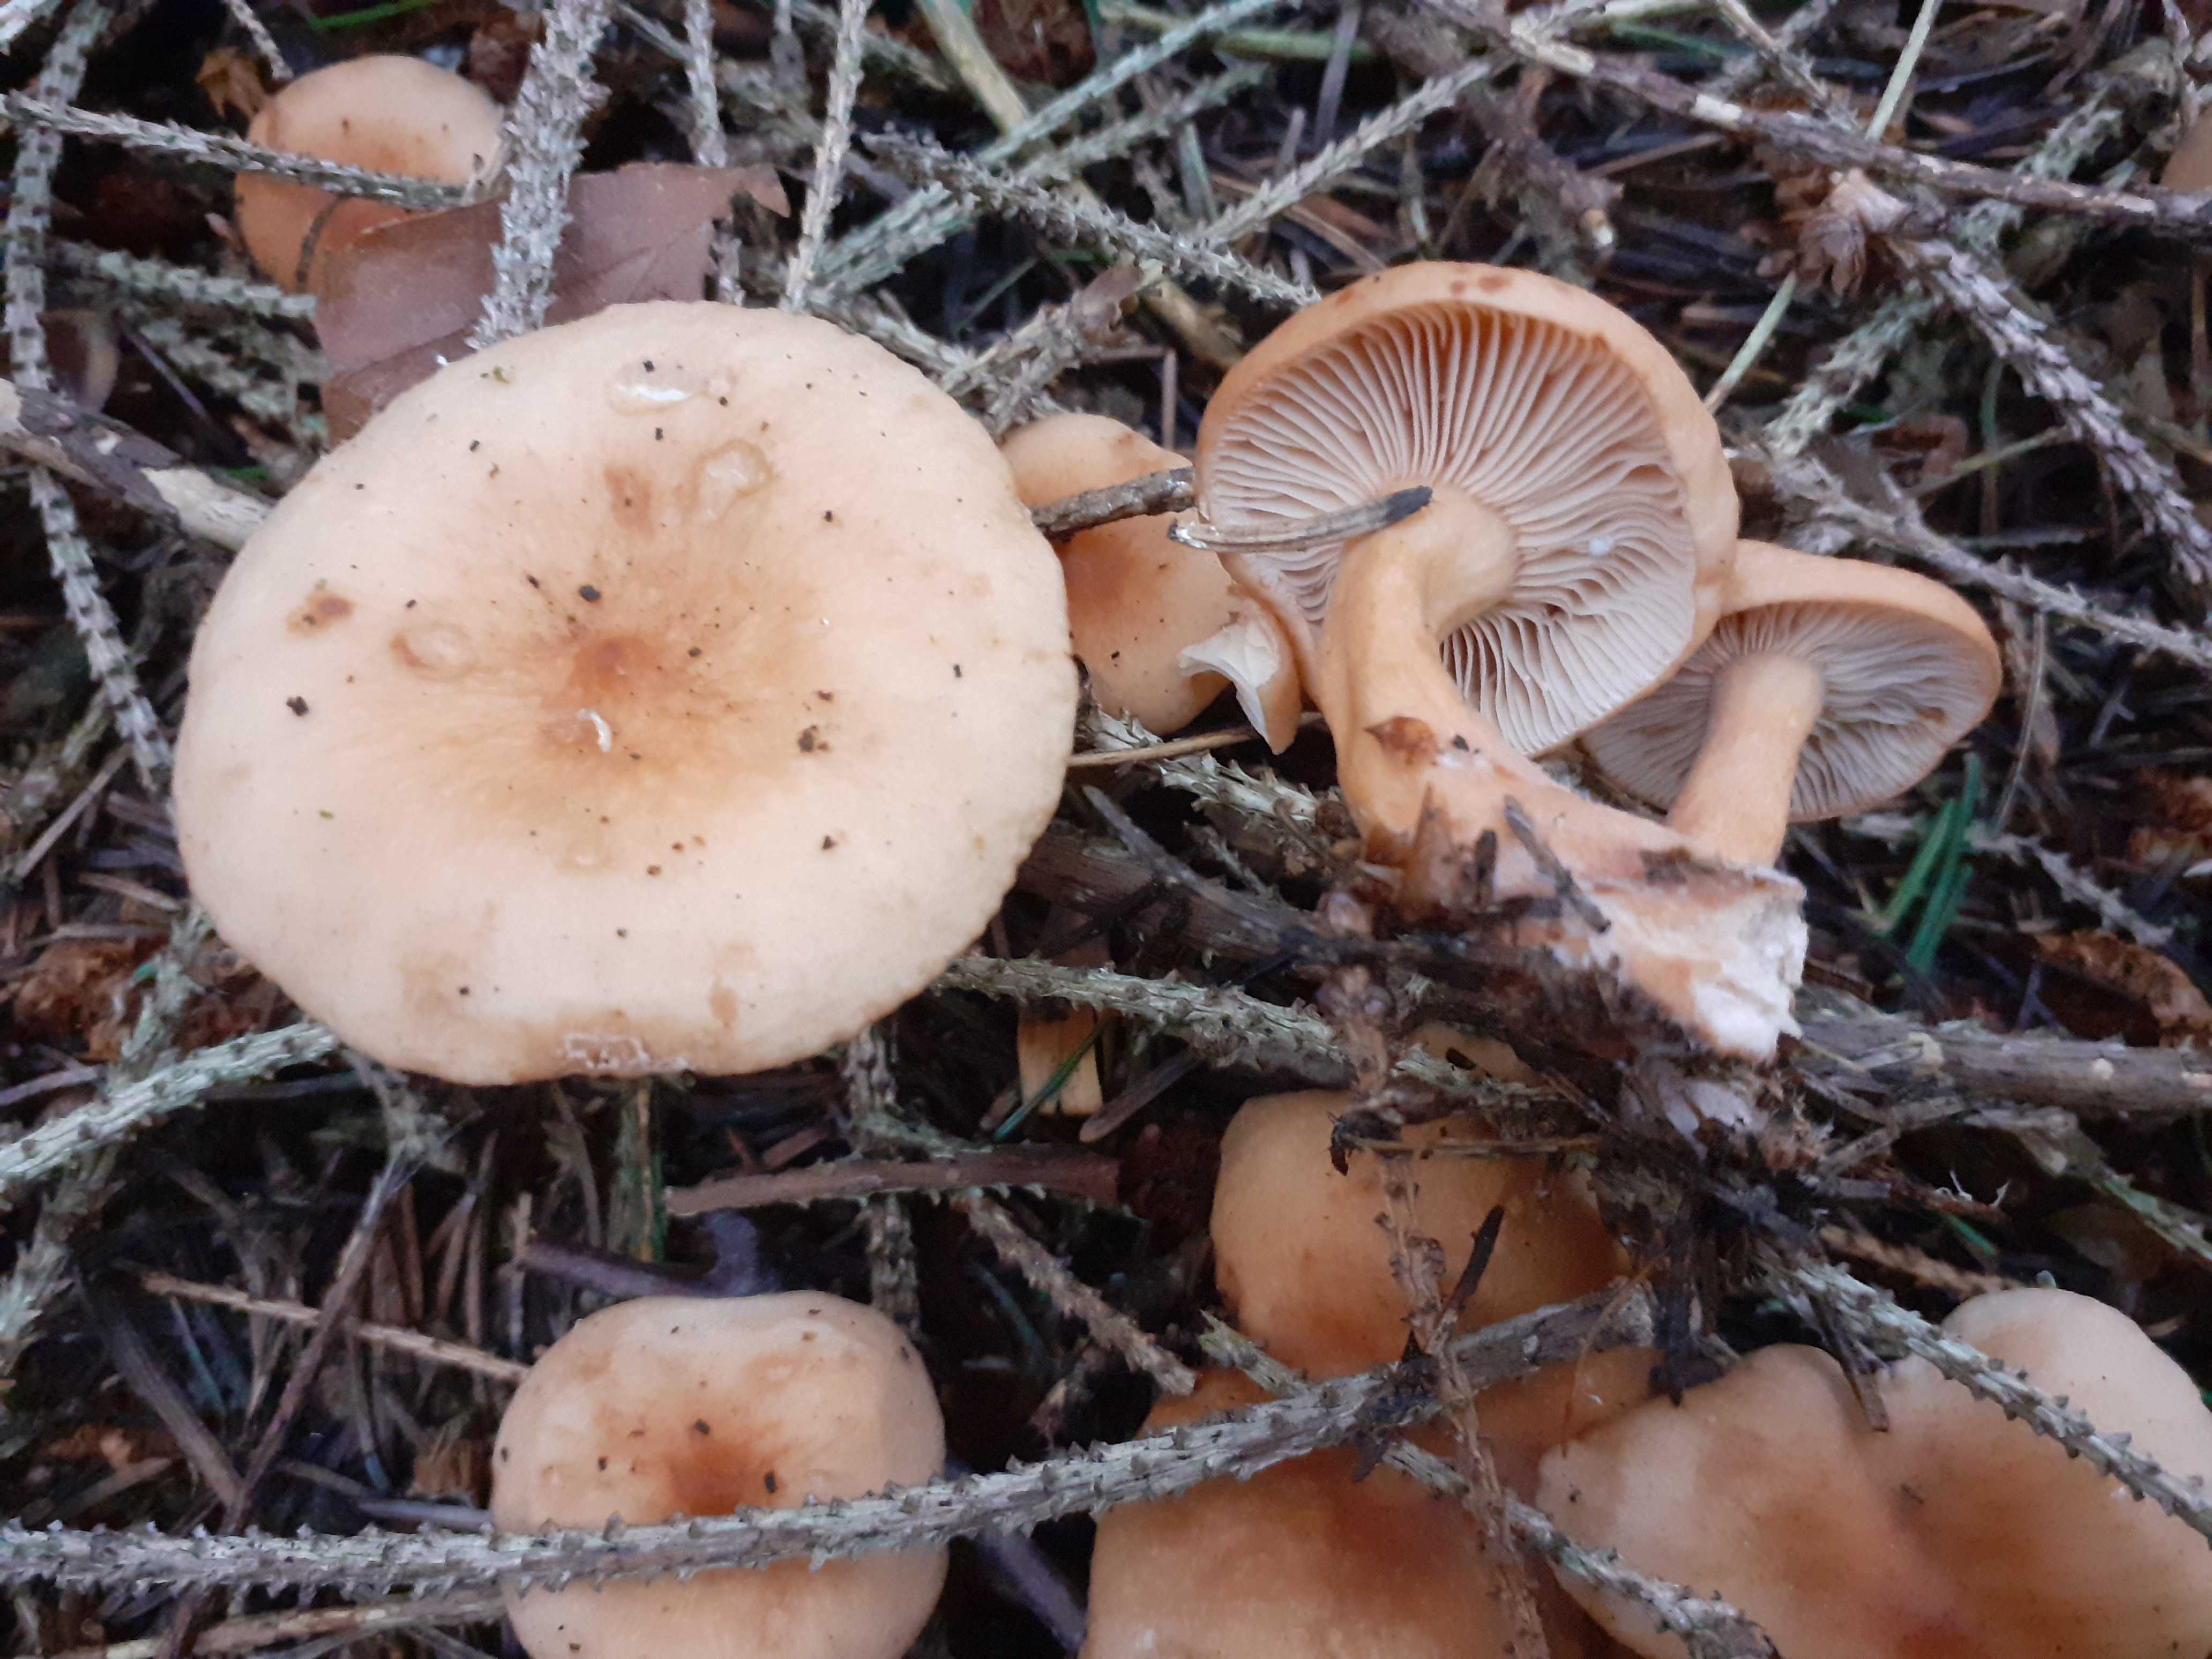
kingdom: Fungi
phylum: Basidiomycota
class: Agaricomycetes
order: Russulales
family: Russulaceae
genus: Lactarius
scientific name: Lactarius tabidus
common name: rynket mælkehat
